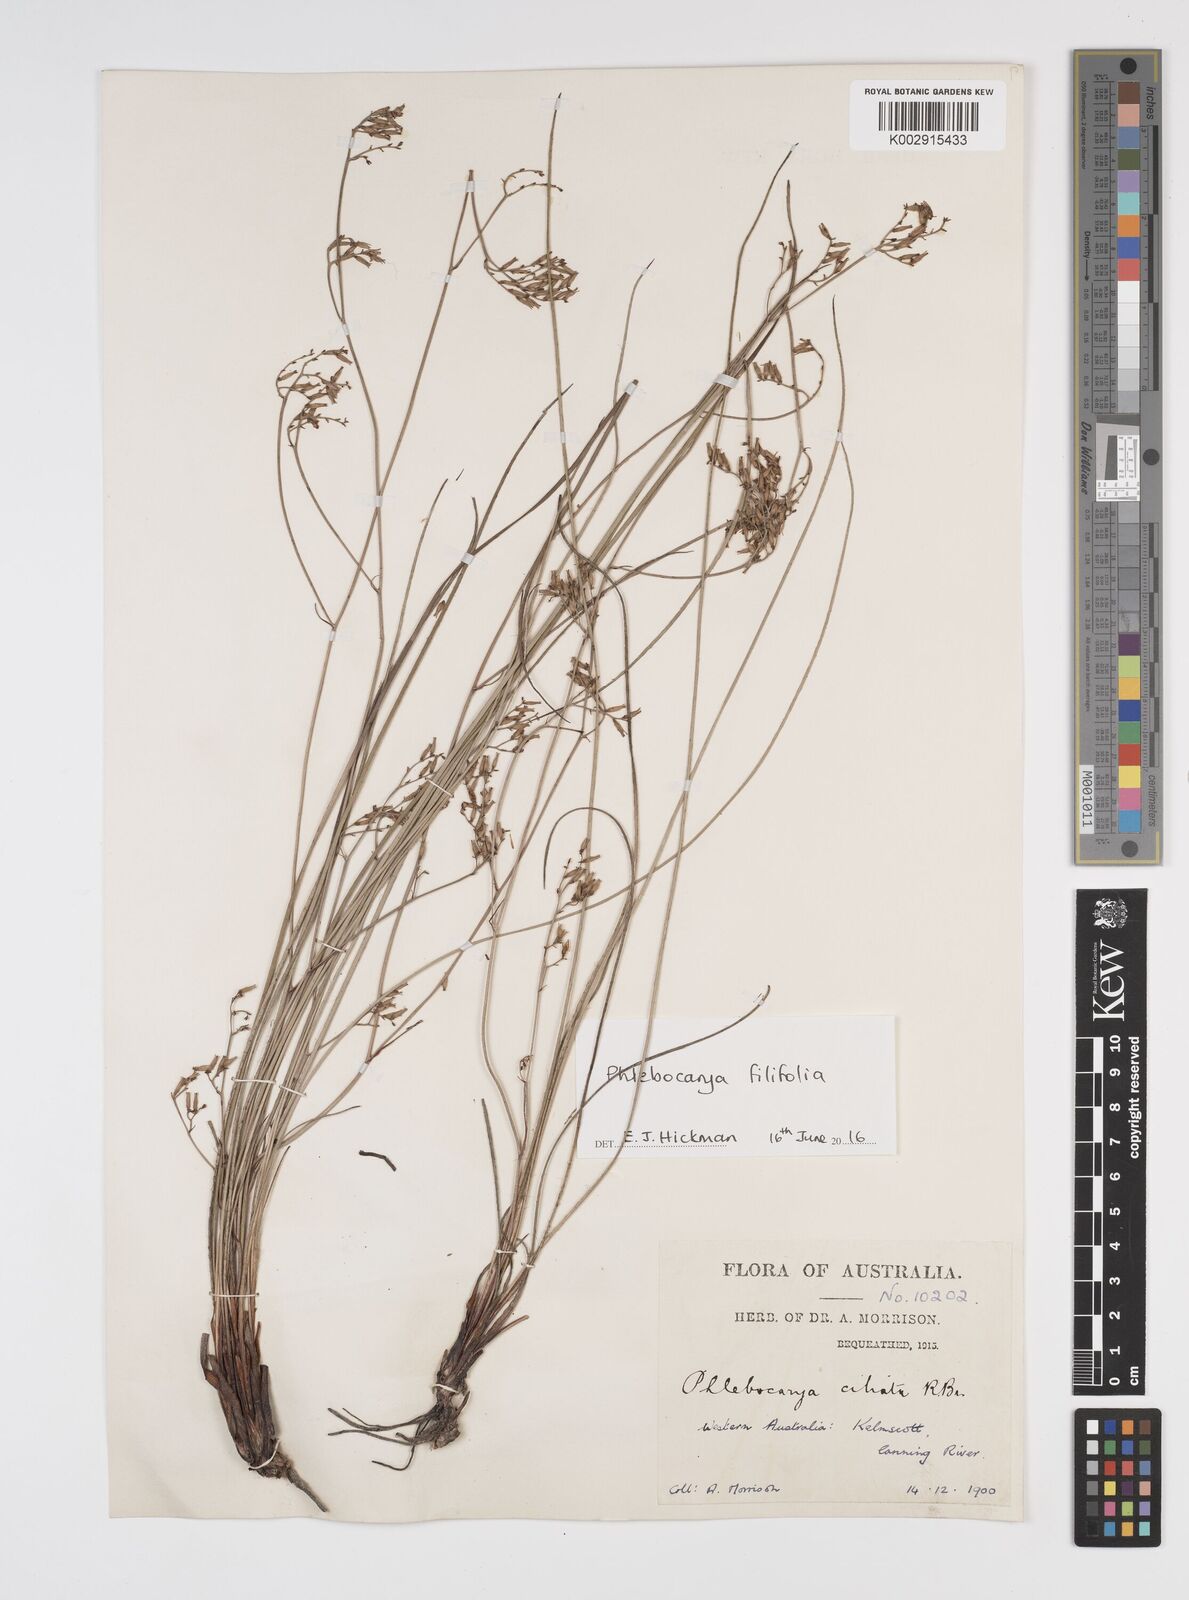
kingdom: Plantae
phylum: Tracheophyta
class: Liliopsida
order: Commelinales
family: Haemodoraceae
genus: Phlebocarya
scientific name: Phlebocarya ciliata
